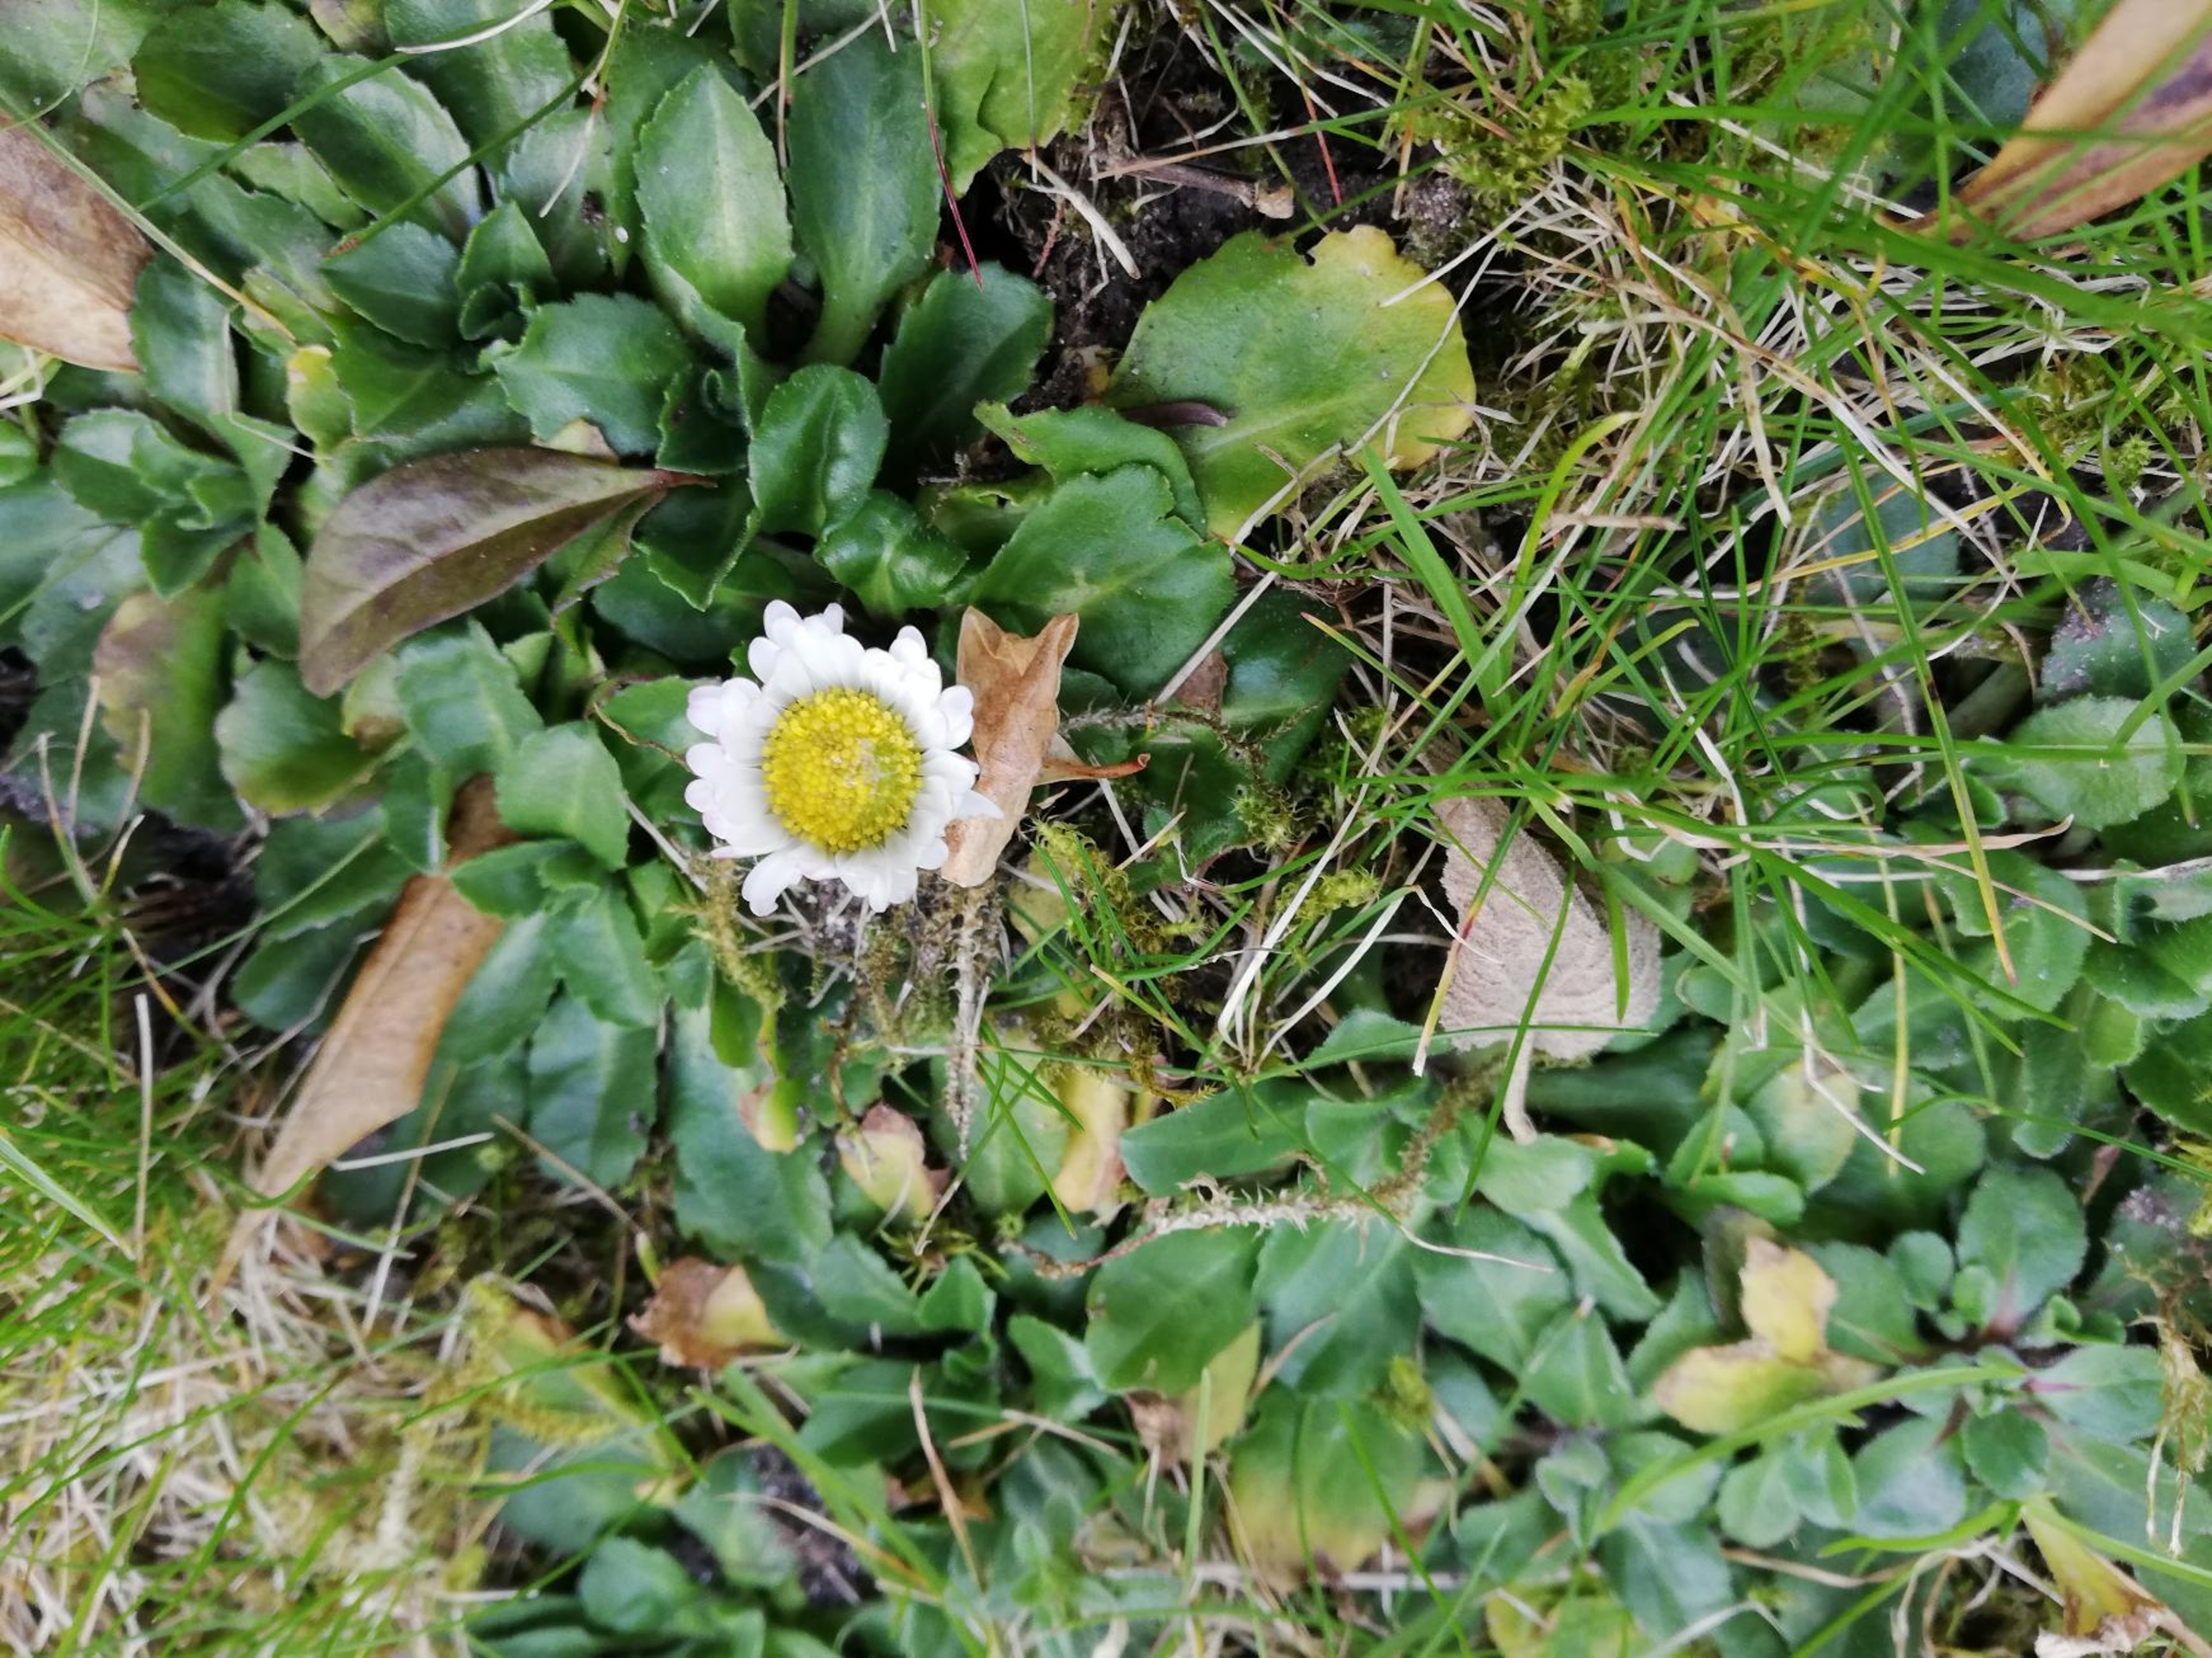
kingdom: Plantae
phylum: Tracheophyta
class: Magnoliopsida
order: Asterales
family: Asteraceae
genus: Bellis
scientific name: Bellis perennis
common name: Tusindfryd
